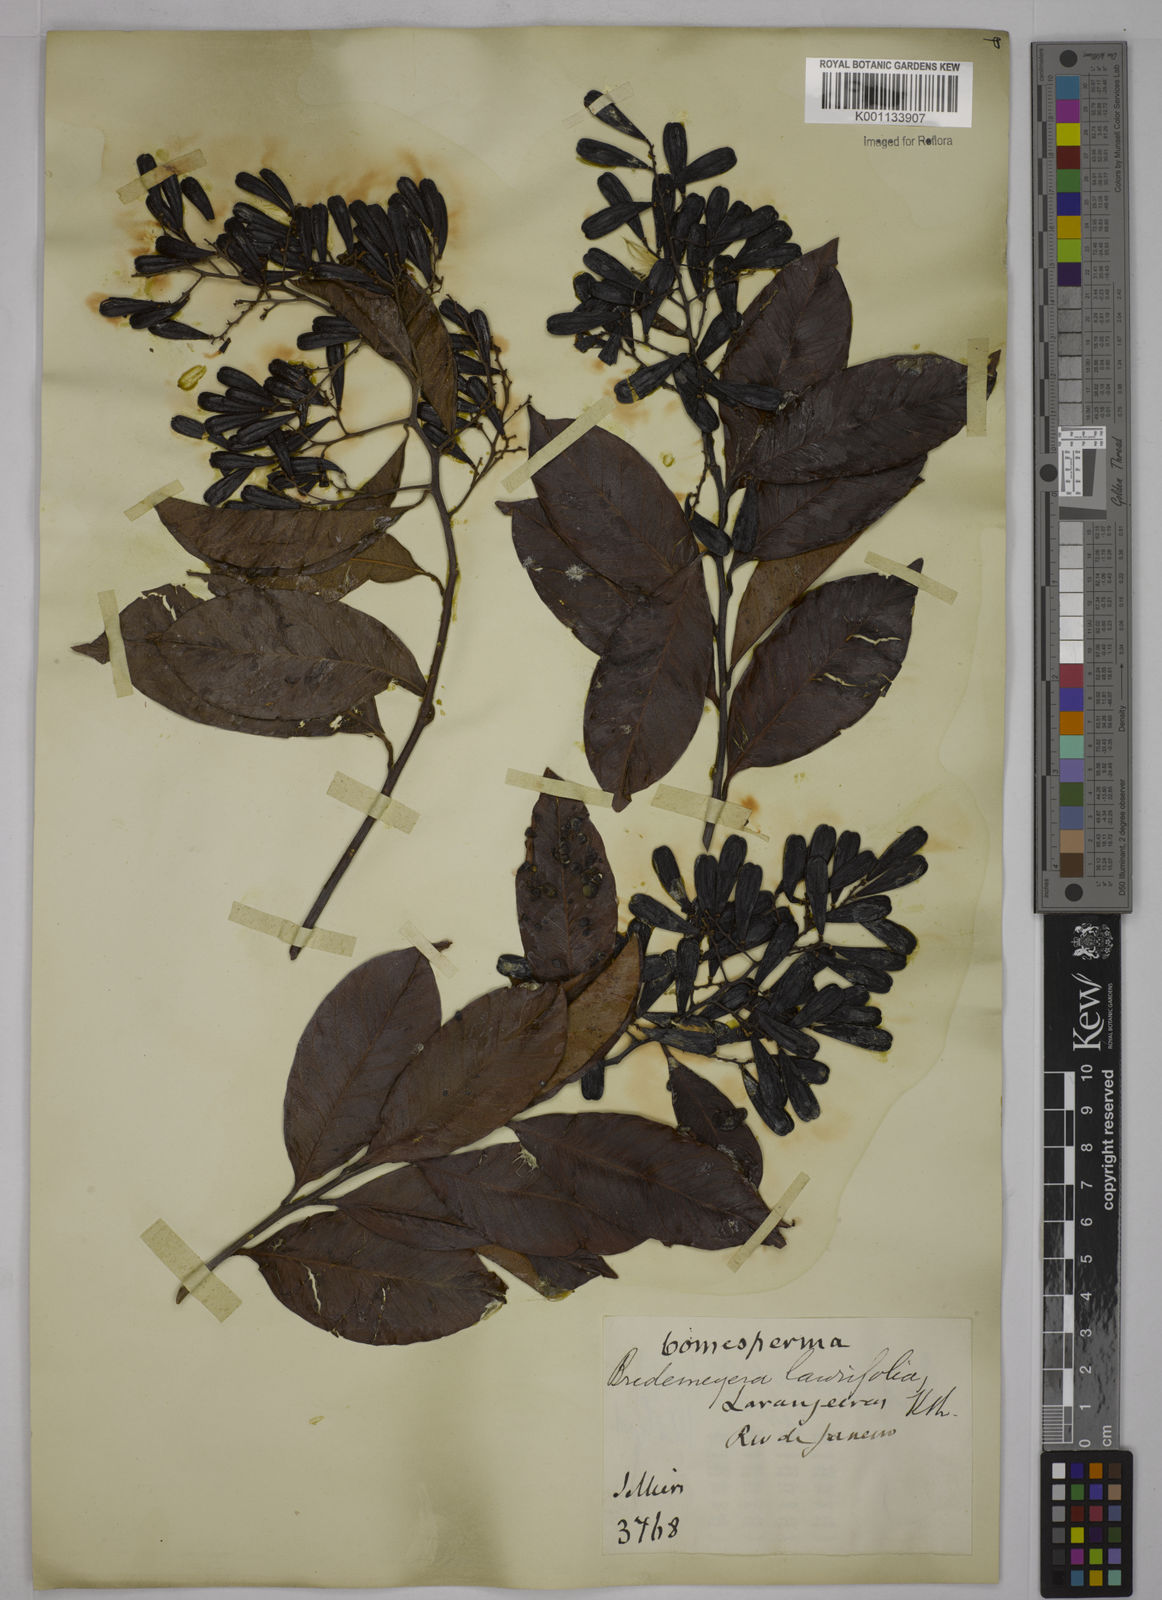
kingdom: Plantae
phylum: Tracheophyta
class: Magnoliopsida
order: Fabales
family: Polygalaceae
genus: Bredemeyera
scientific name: Bredemeyera laurifolia
